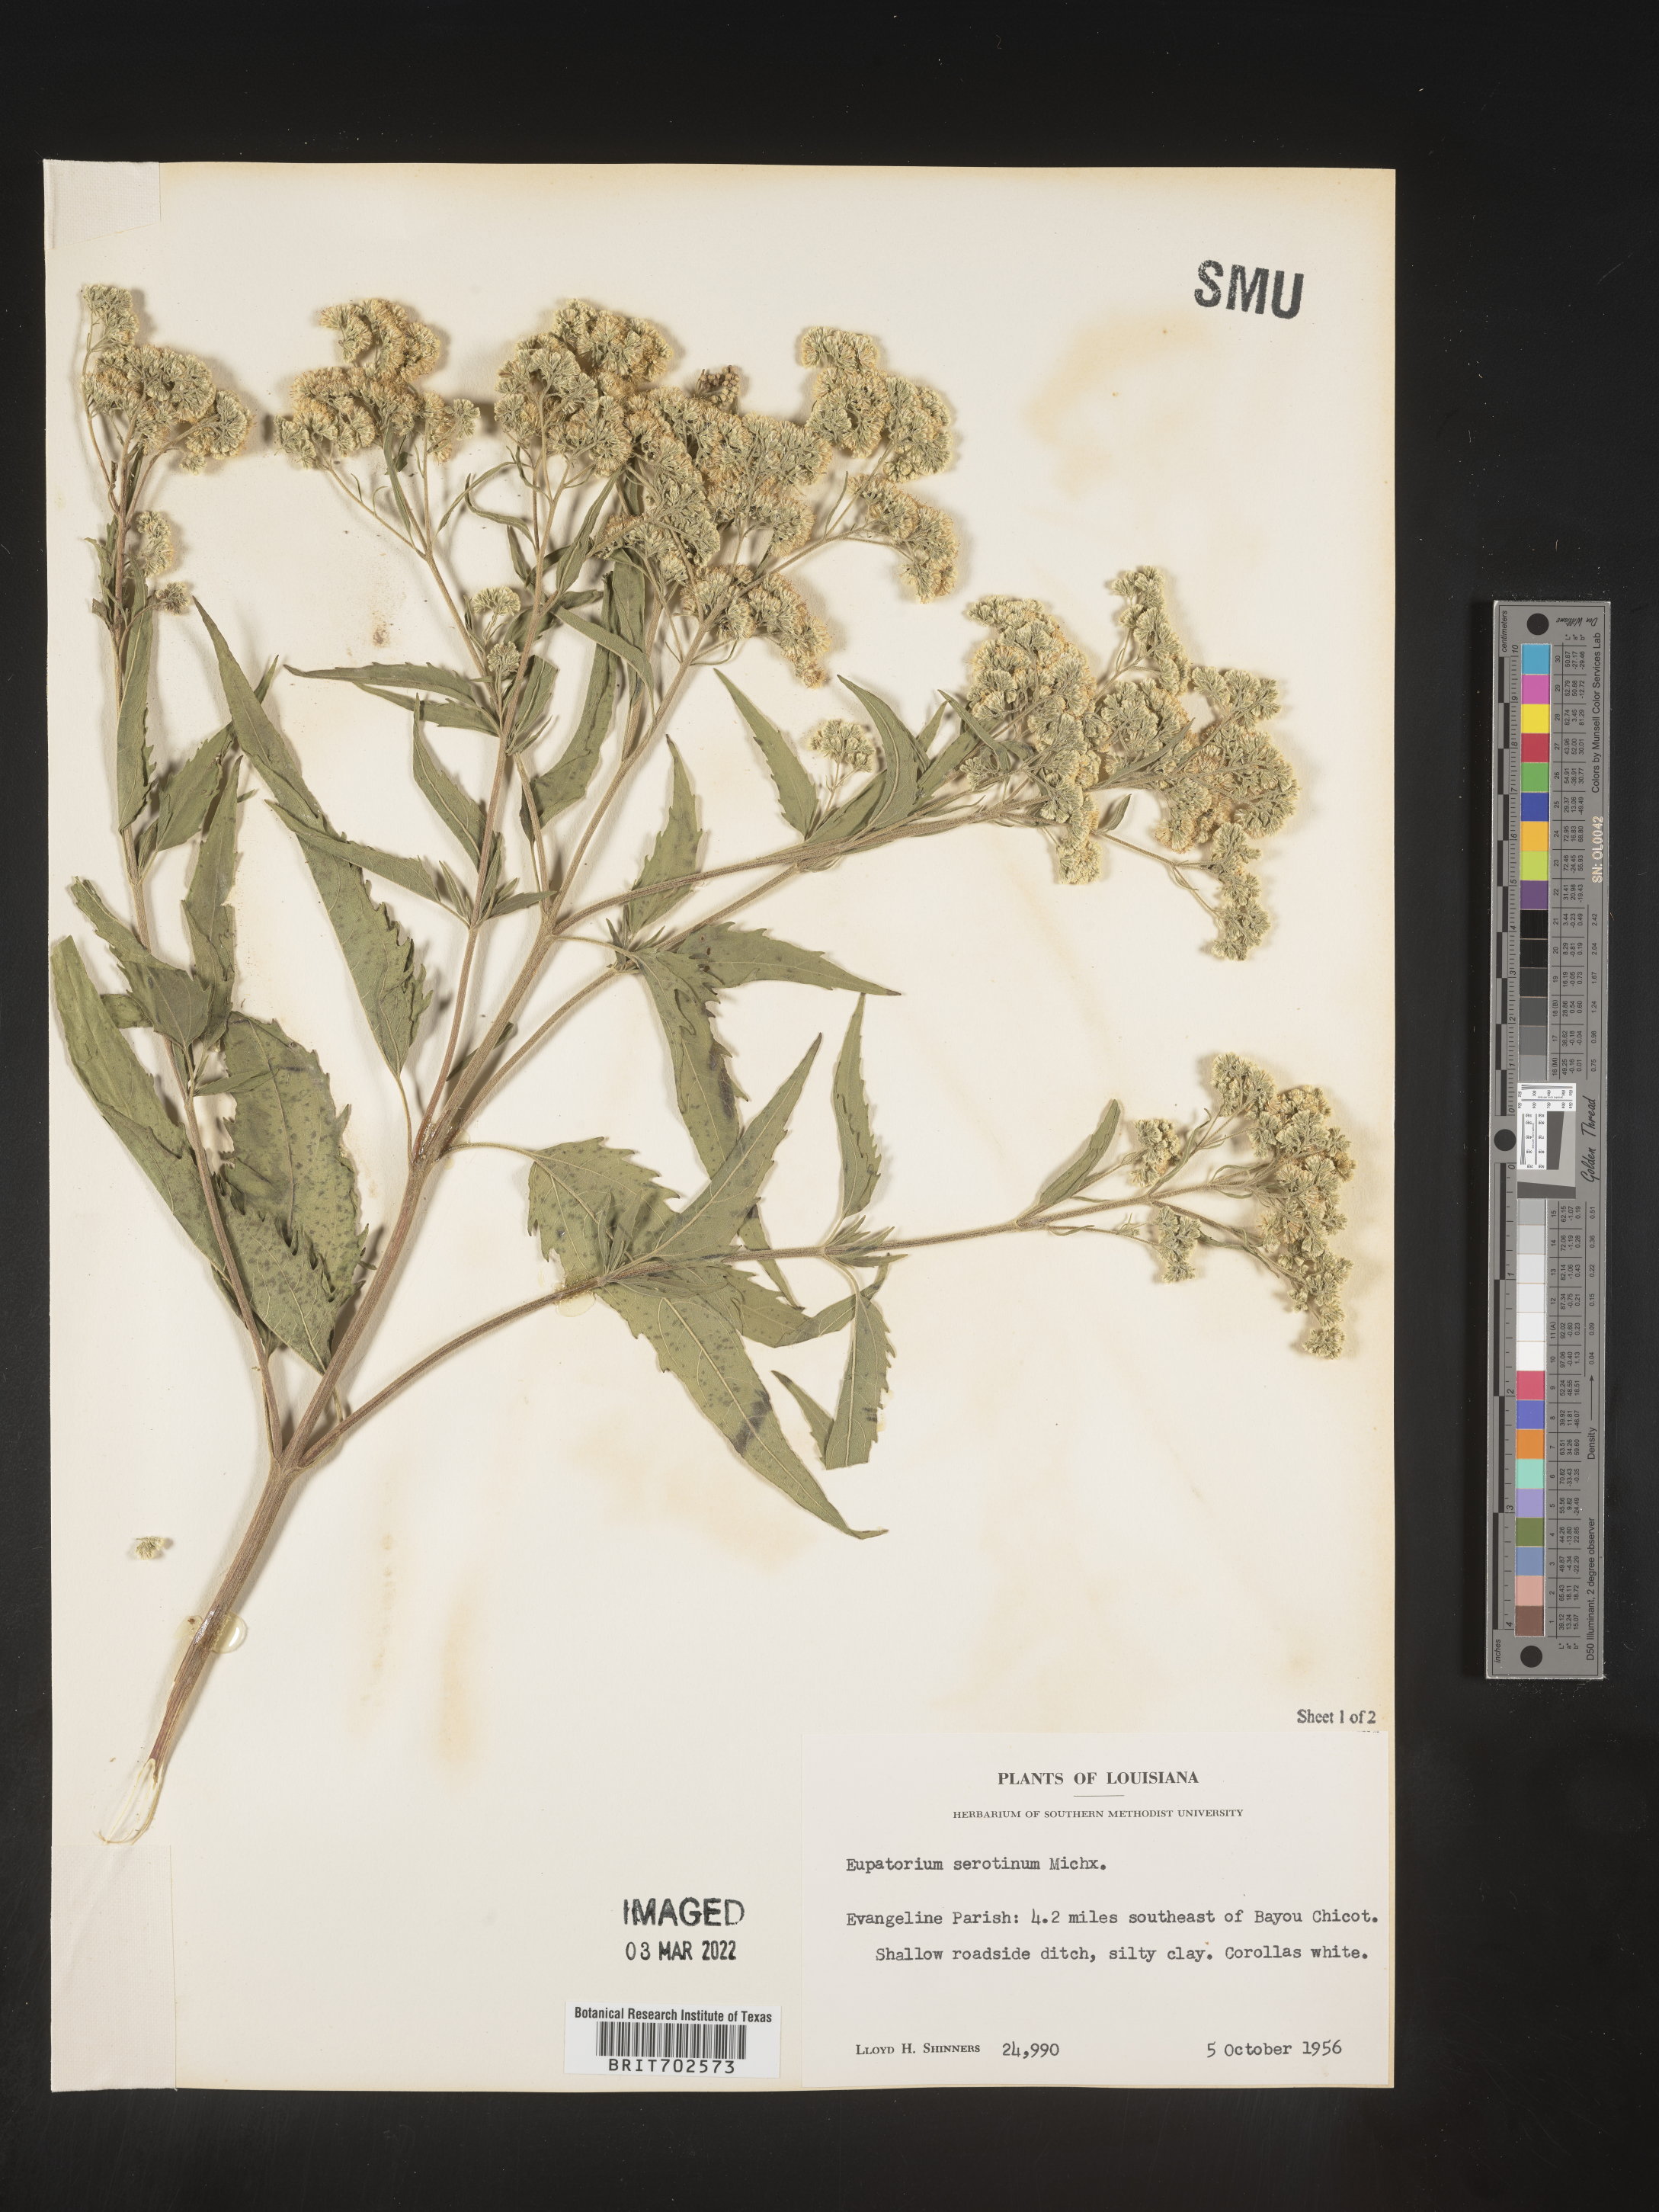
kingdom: Plantae
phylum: Tracheophyta
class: Magnoliopsida
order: Asterales
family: Asteraceae
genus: Eupatorium
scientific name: Eupatorium serotinum
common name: Late boneset
